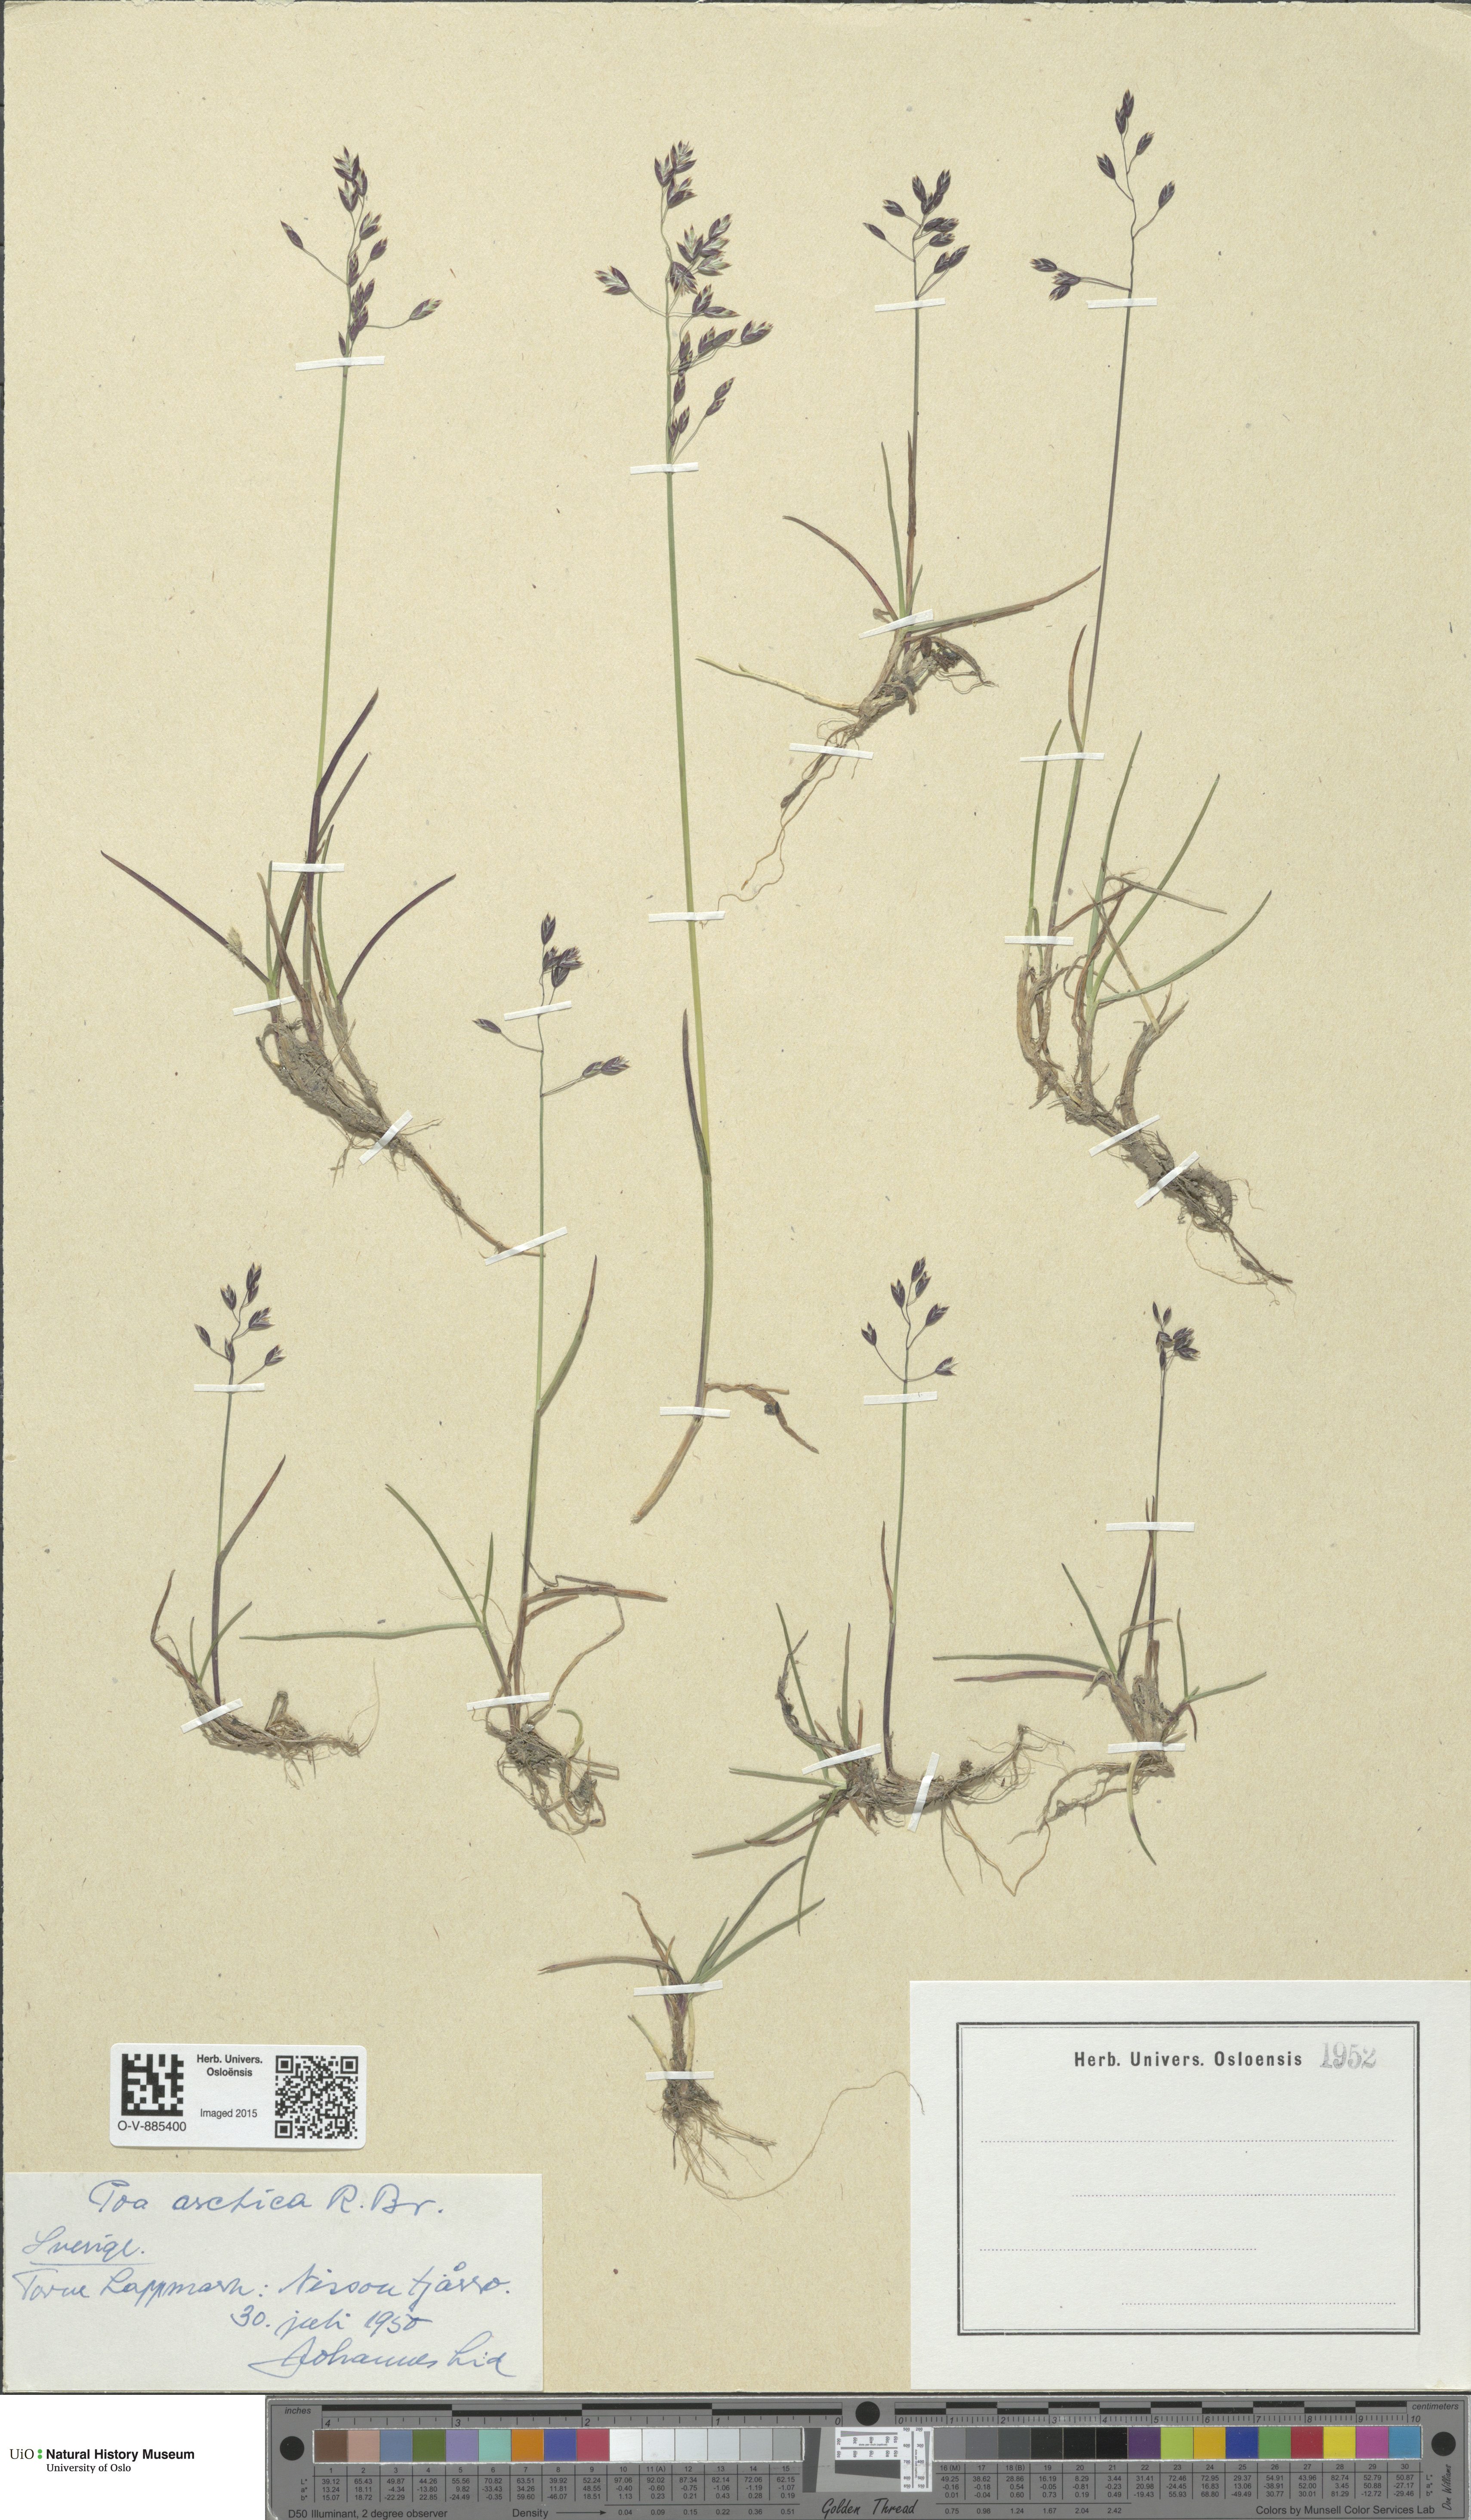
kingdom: Plantae
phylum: Tracheophyta
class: Liliopsida
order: Poales
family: Poaceae
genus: Poa
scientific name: Poa arctica
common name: Arctic bluegrass
